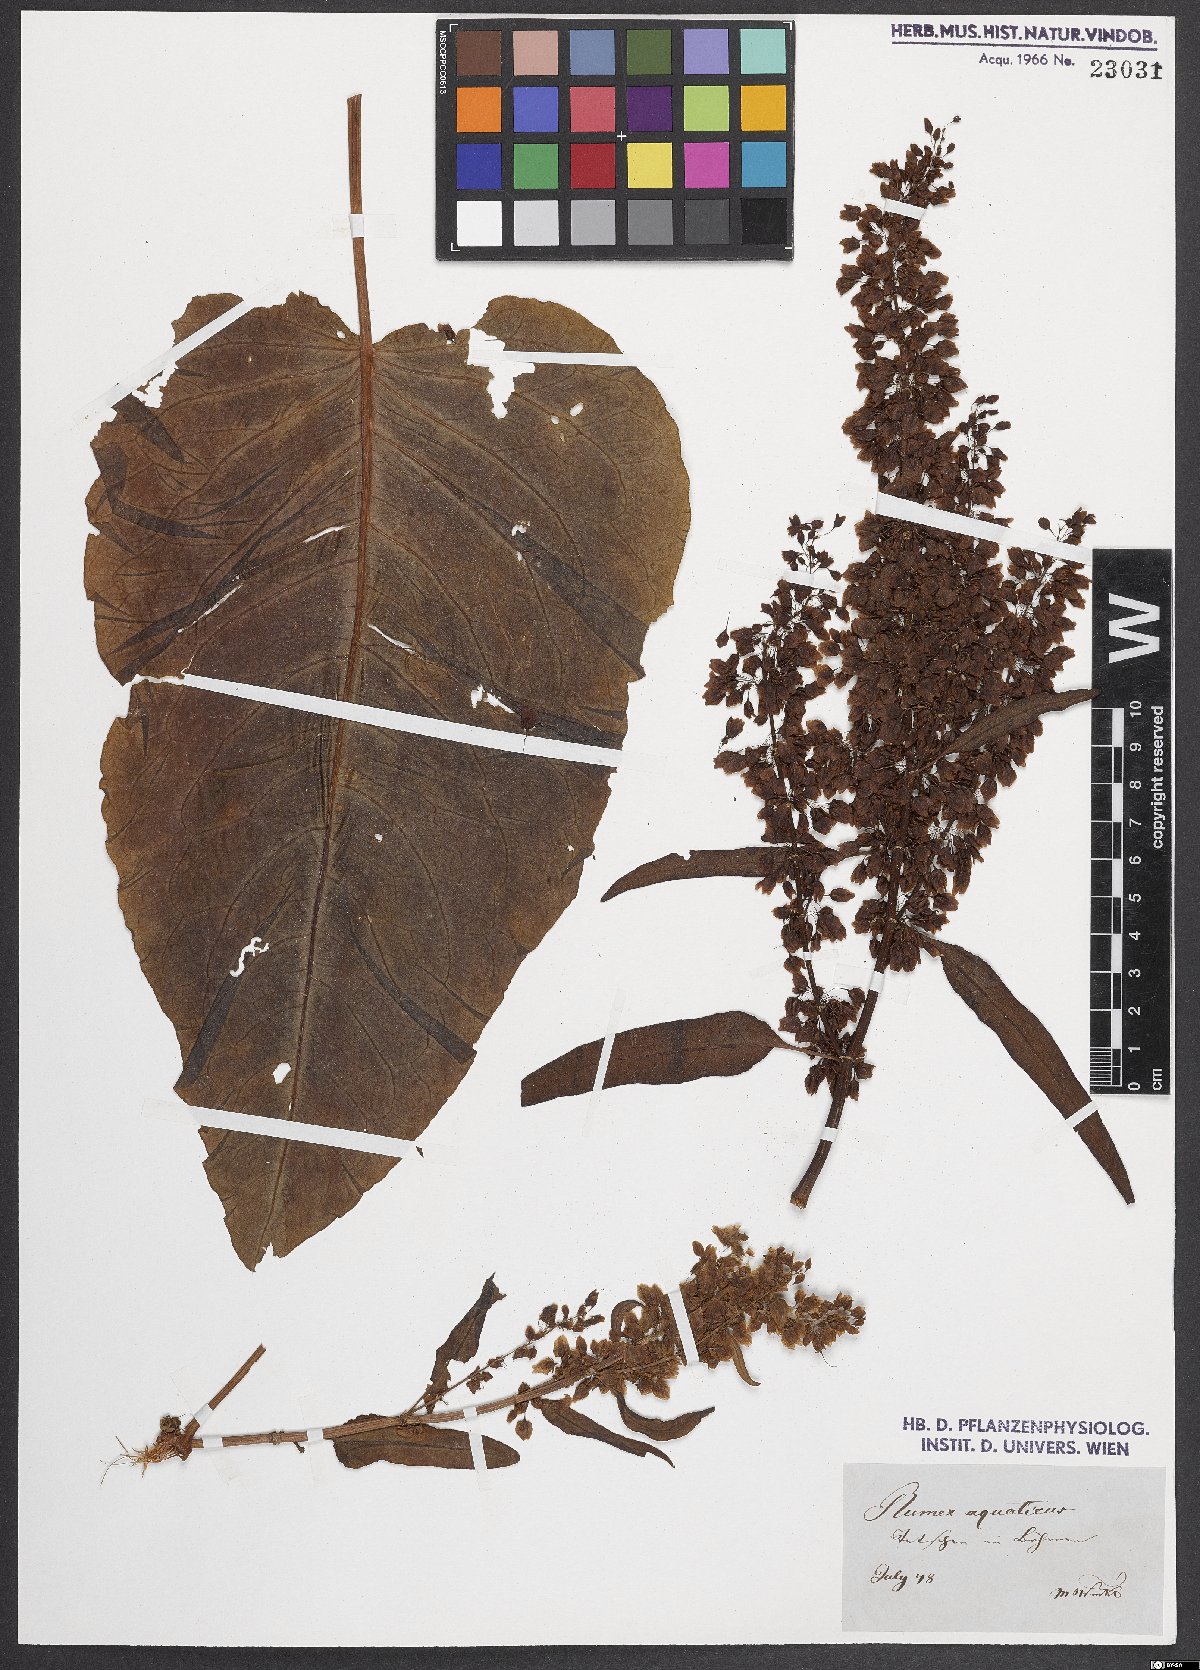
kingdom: Plantae
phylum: Tracheophyta
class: Magnoliopsida
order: Caryophyllales
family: Polygonaceae
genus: Rumex
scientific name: Rumex aquaticus
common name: Scottish dock
